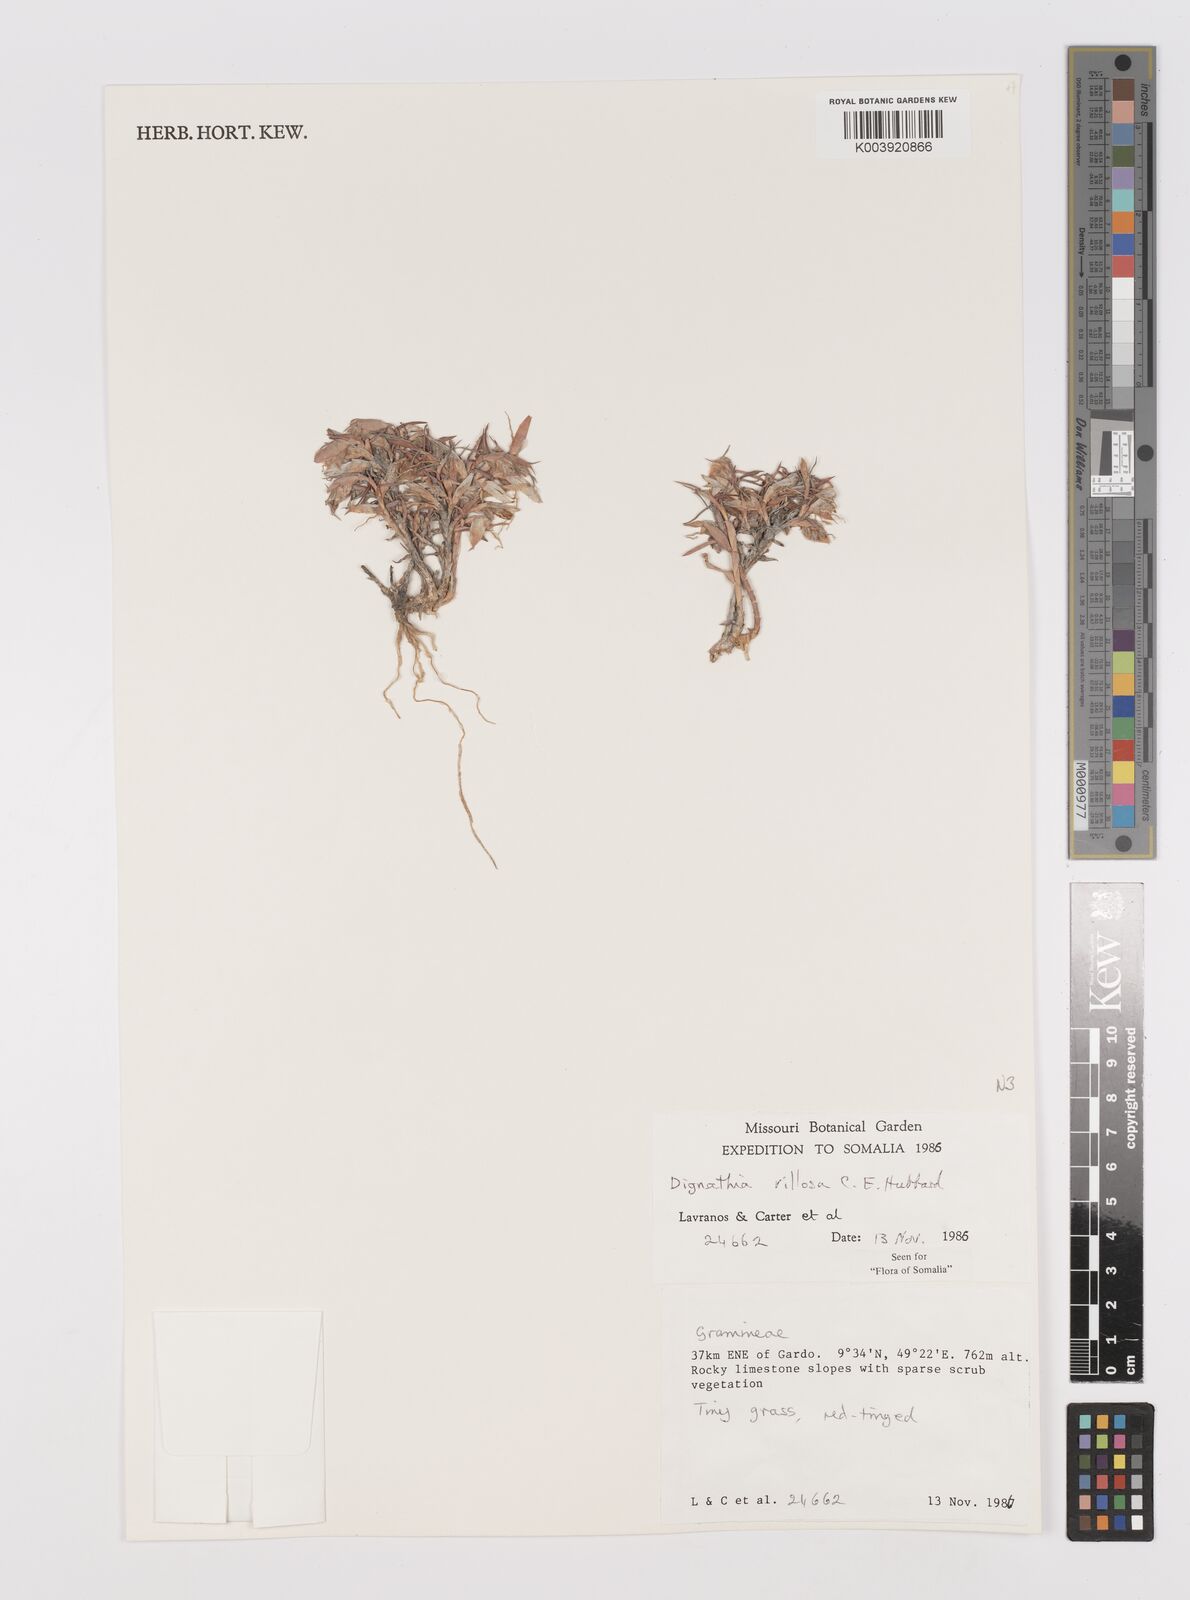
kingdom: Plantae
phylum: Tracheophyta
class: Liliopsida
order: Poales
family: Poaceae
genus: Dignathia
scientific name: Dignathia villosa
